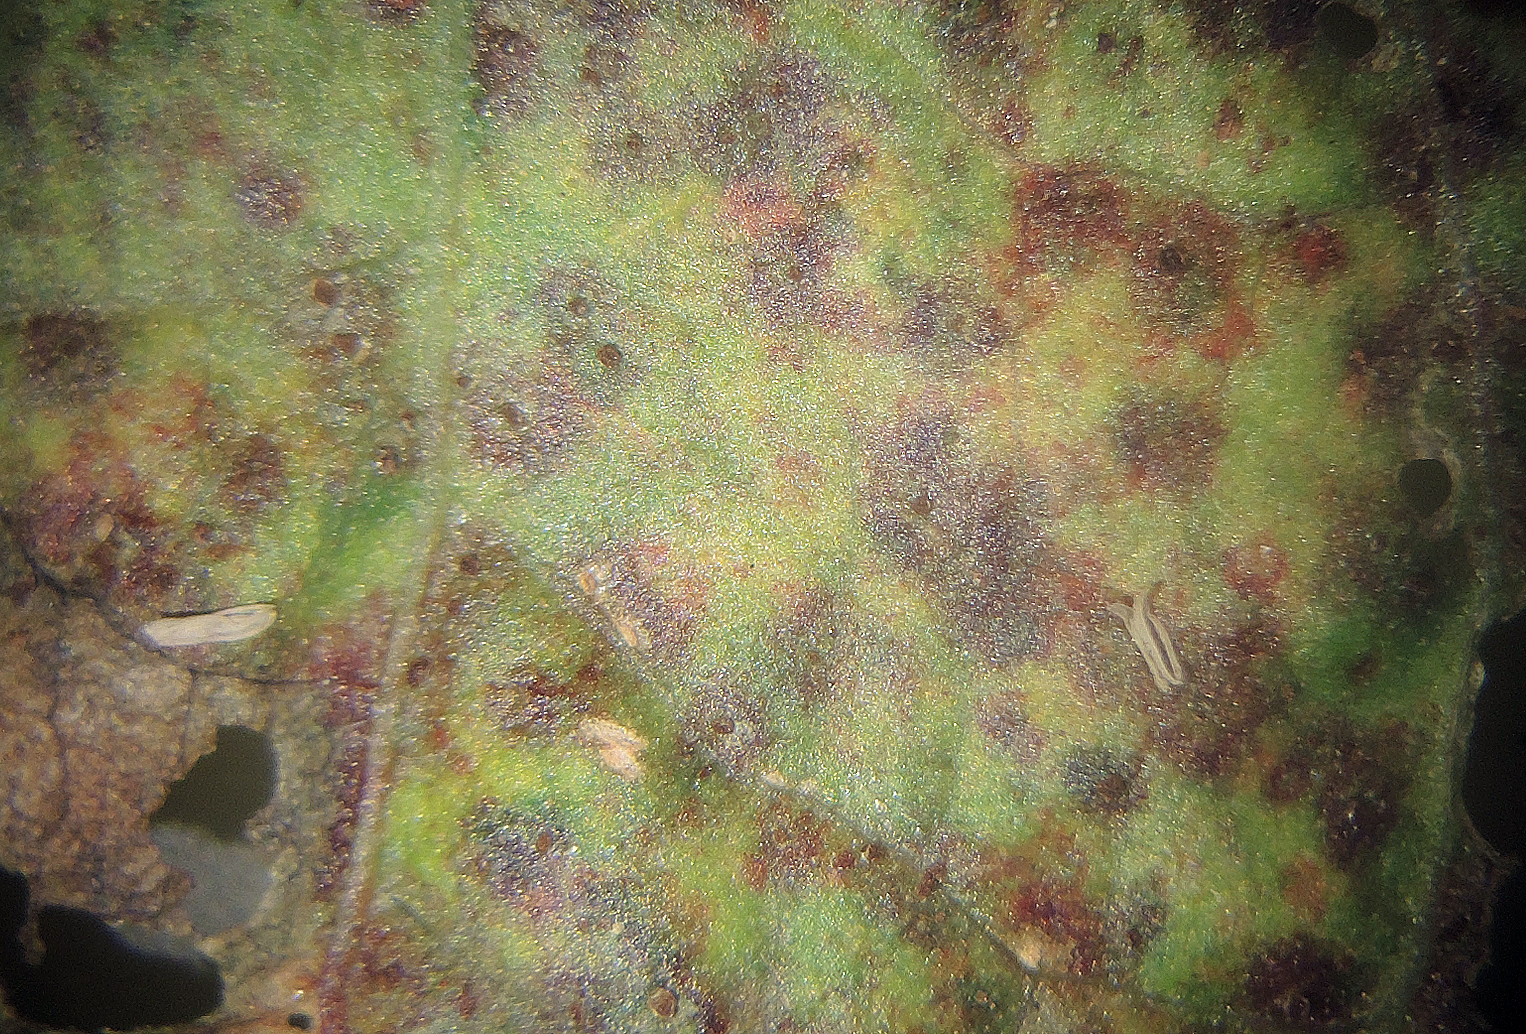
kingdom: Fungi
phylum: Basidiomycota
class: Pucciniomycetes
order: Pucciniales
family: Pucciniaceae
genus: Uromyces
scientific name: Uromyces rumicis
